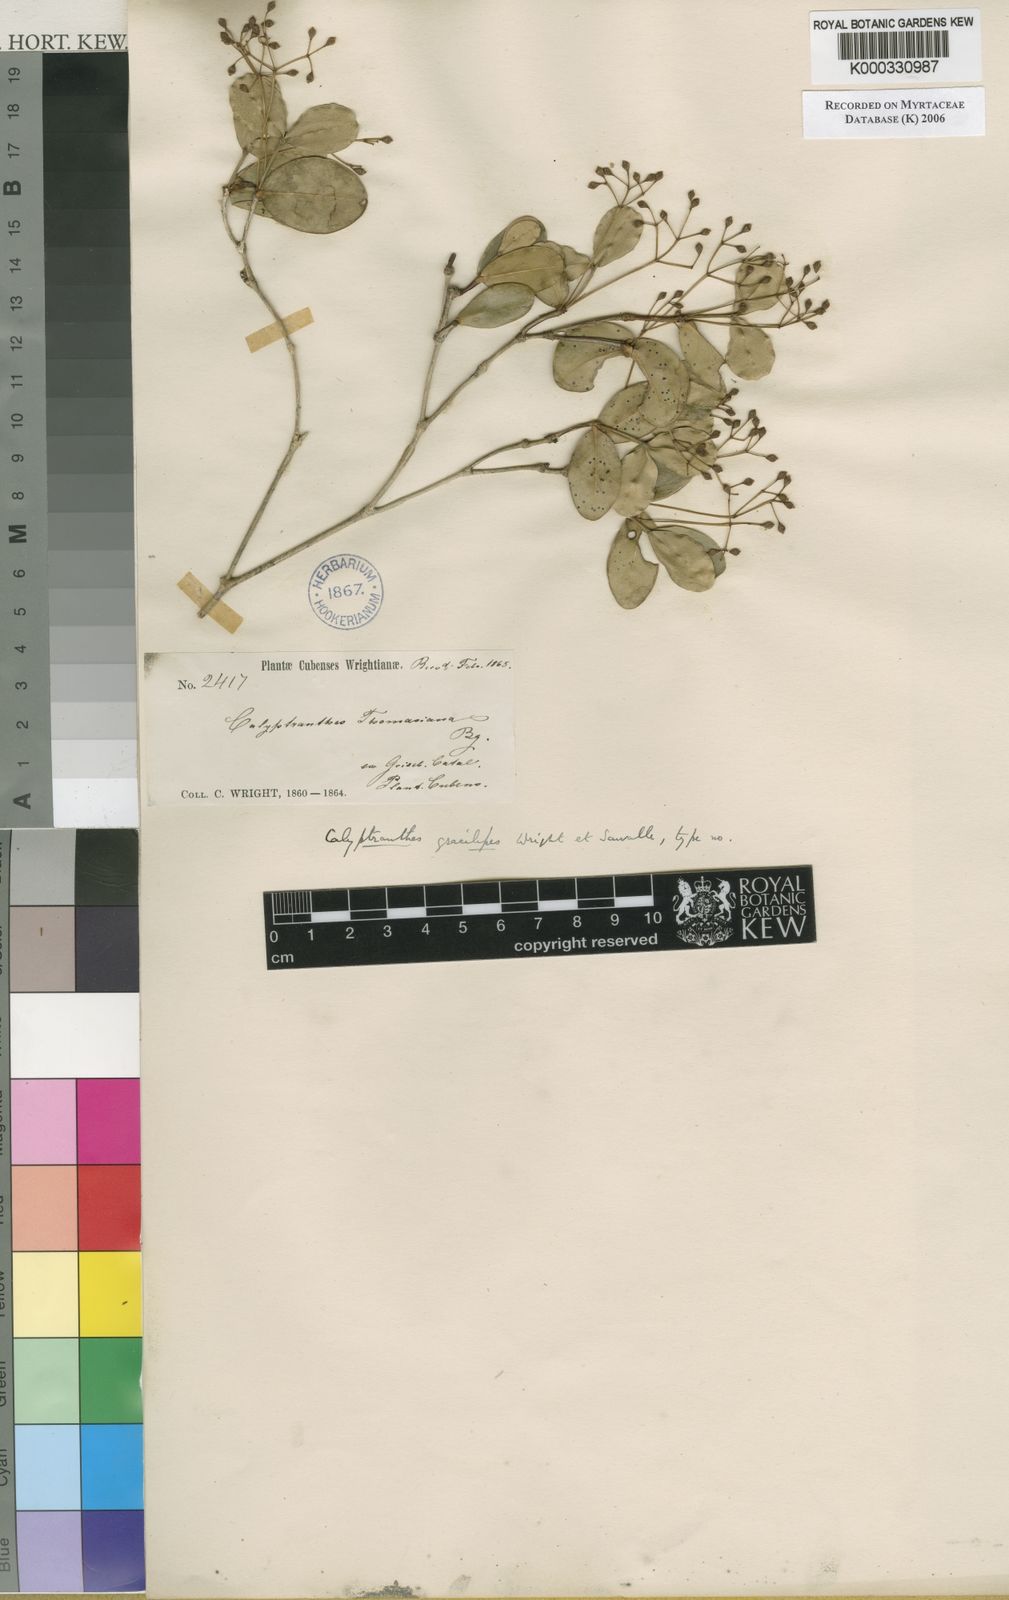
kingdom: Plantae
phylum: Tracheophyta
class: Magnoliopsida
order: Myrtales
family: Myrtaceae
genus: Myrcia
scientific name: Myrcia gracilipes
